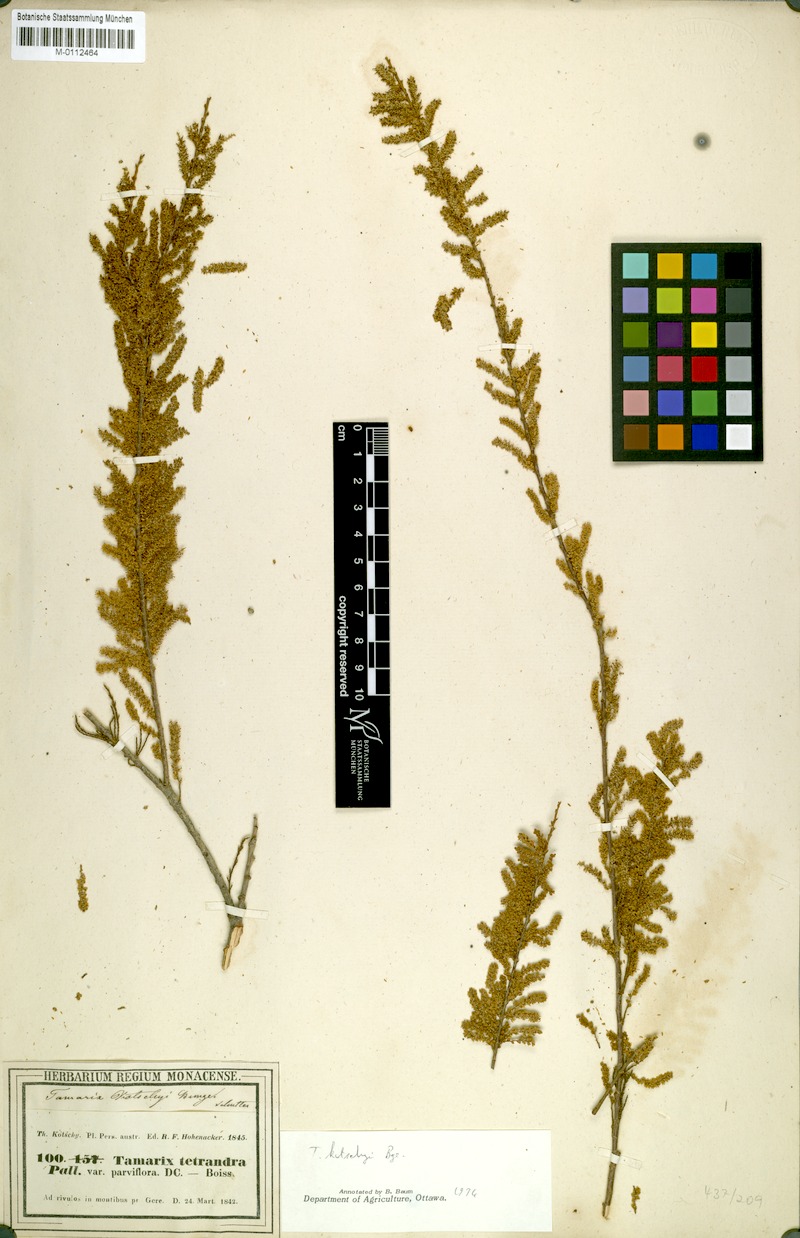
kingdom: Plantae
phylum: Tracheophyta
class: Magnoliopsida
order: Caryophyllales
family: Tamaricaceae
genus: Tamarix
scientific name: Tamarix kotschyi
